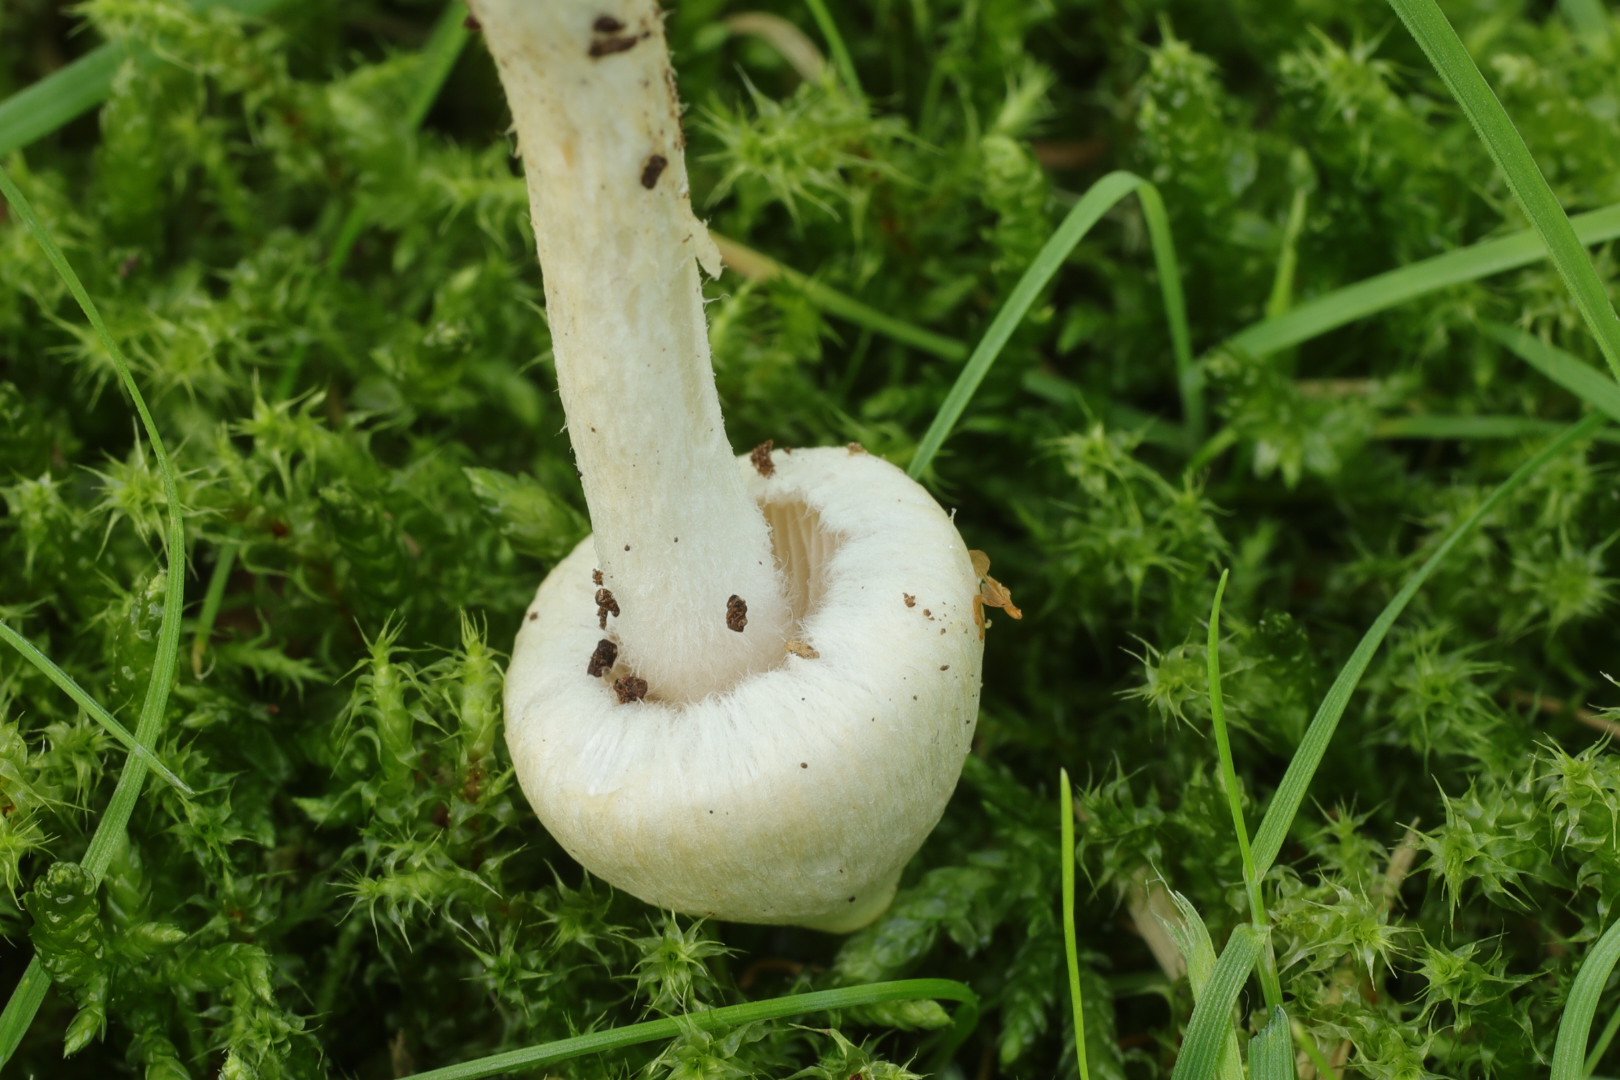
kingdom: Fungi
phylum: Basidiomycota
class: Agaricomycetes
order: Agaricales
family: Inocybaceae
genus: Inocybe
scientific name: Inocybe
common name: almindelig trævlhat
